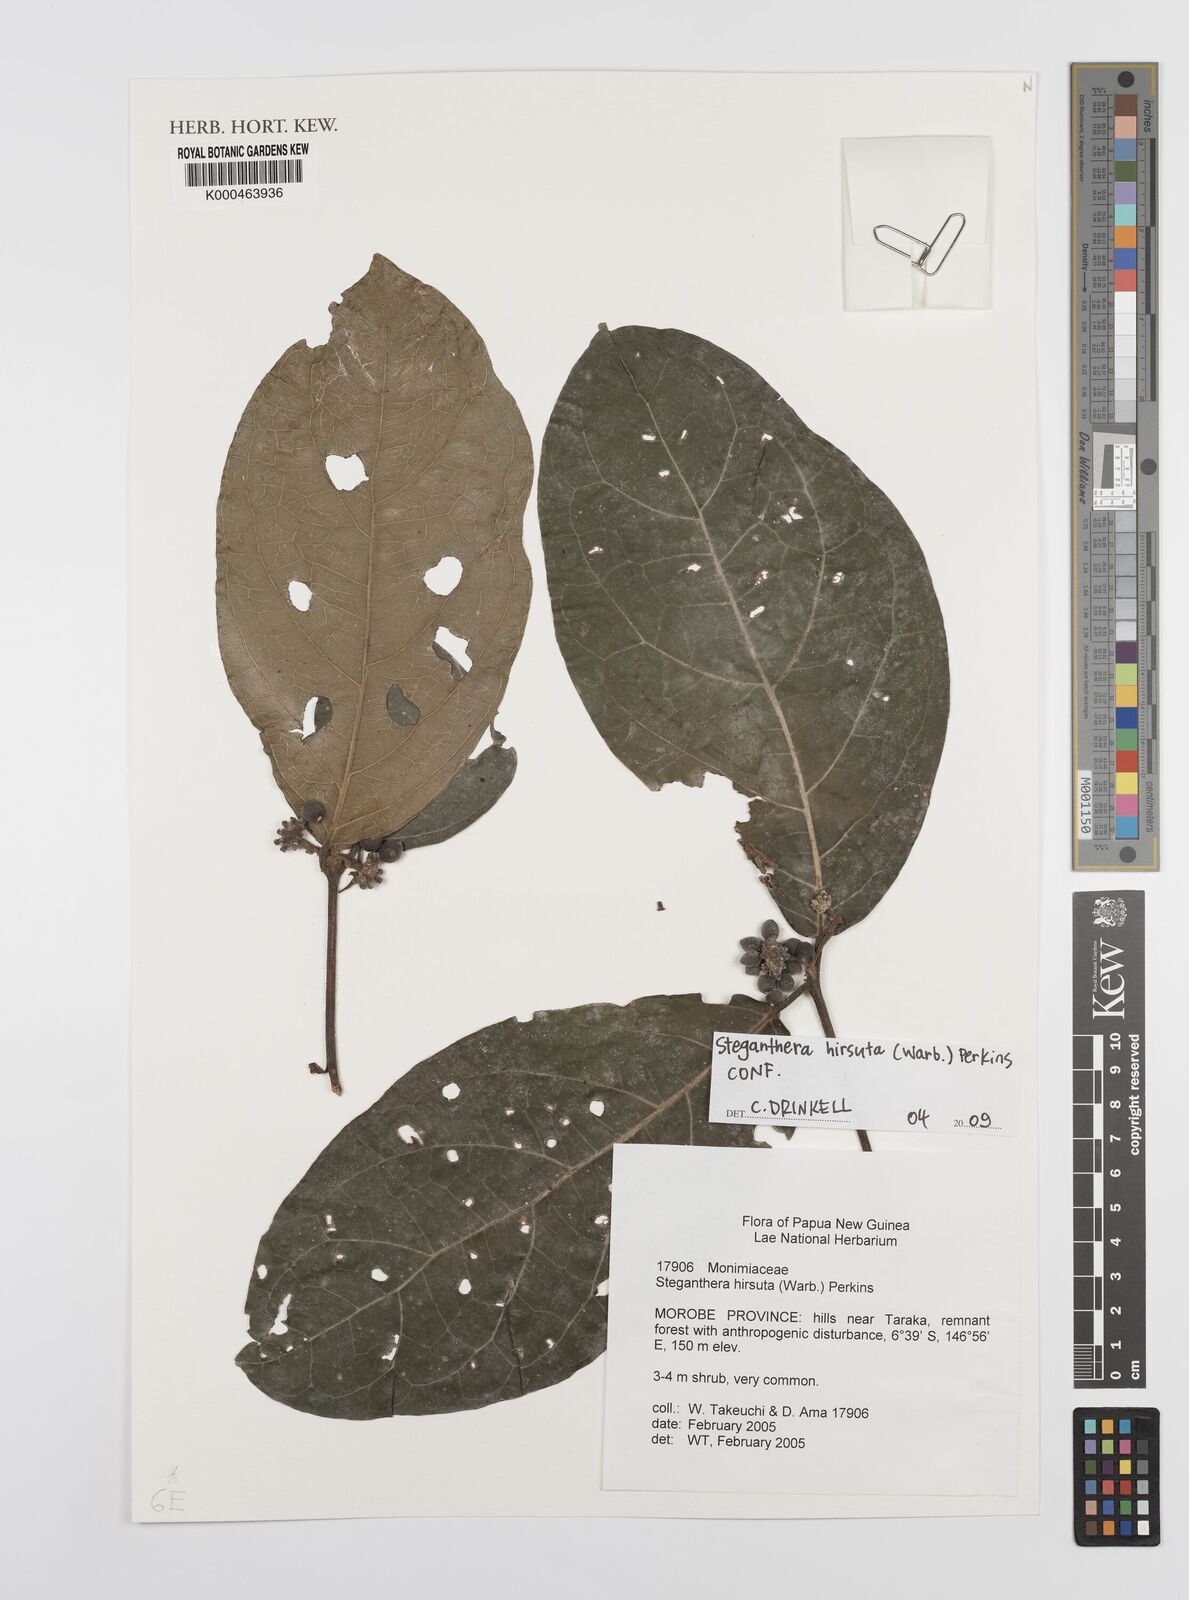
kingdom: Plantae
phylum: Tracheophyta
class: Magnoliopsida
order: Laurales
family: Monimiaceae
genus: Steganthera
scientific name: Steganthera hirsuta
